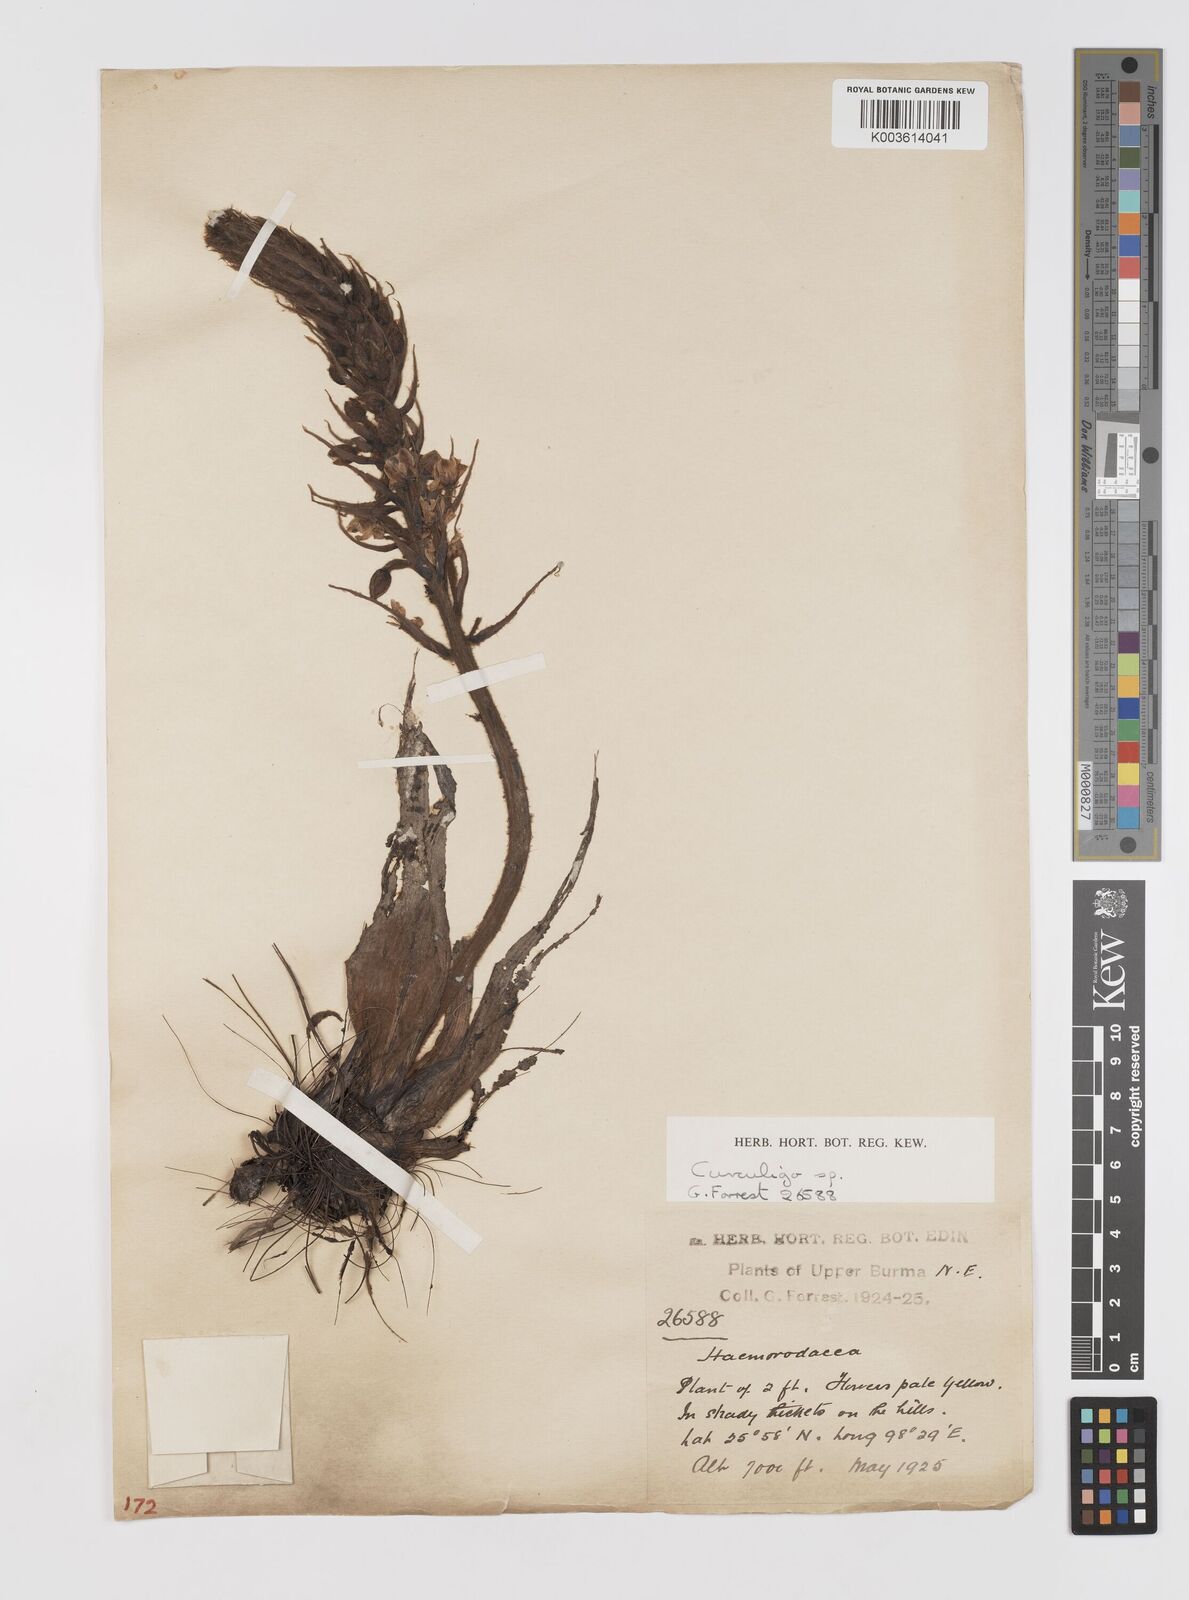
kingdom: Plantae
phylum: Tracheophyta
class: Liliopsida
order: Asparagales
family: Hypoxidaceae
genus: Curculigo
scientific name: Curculigo
